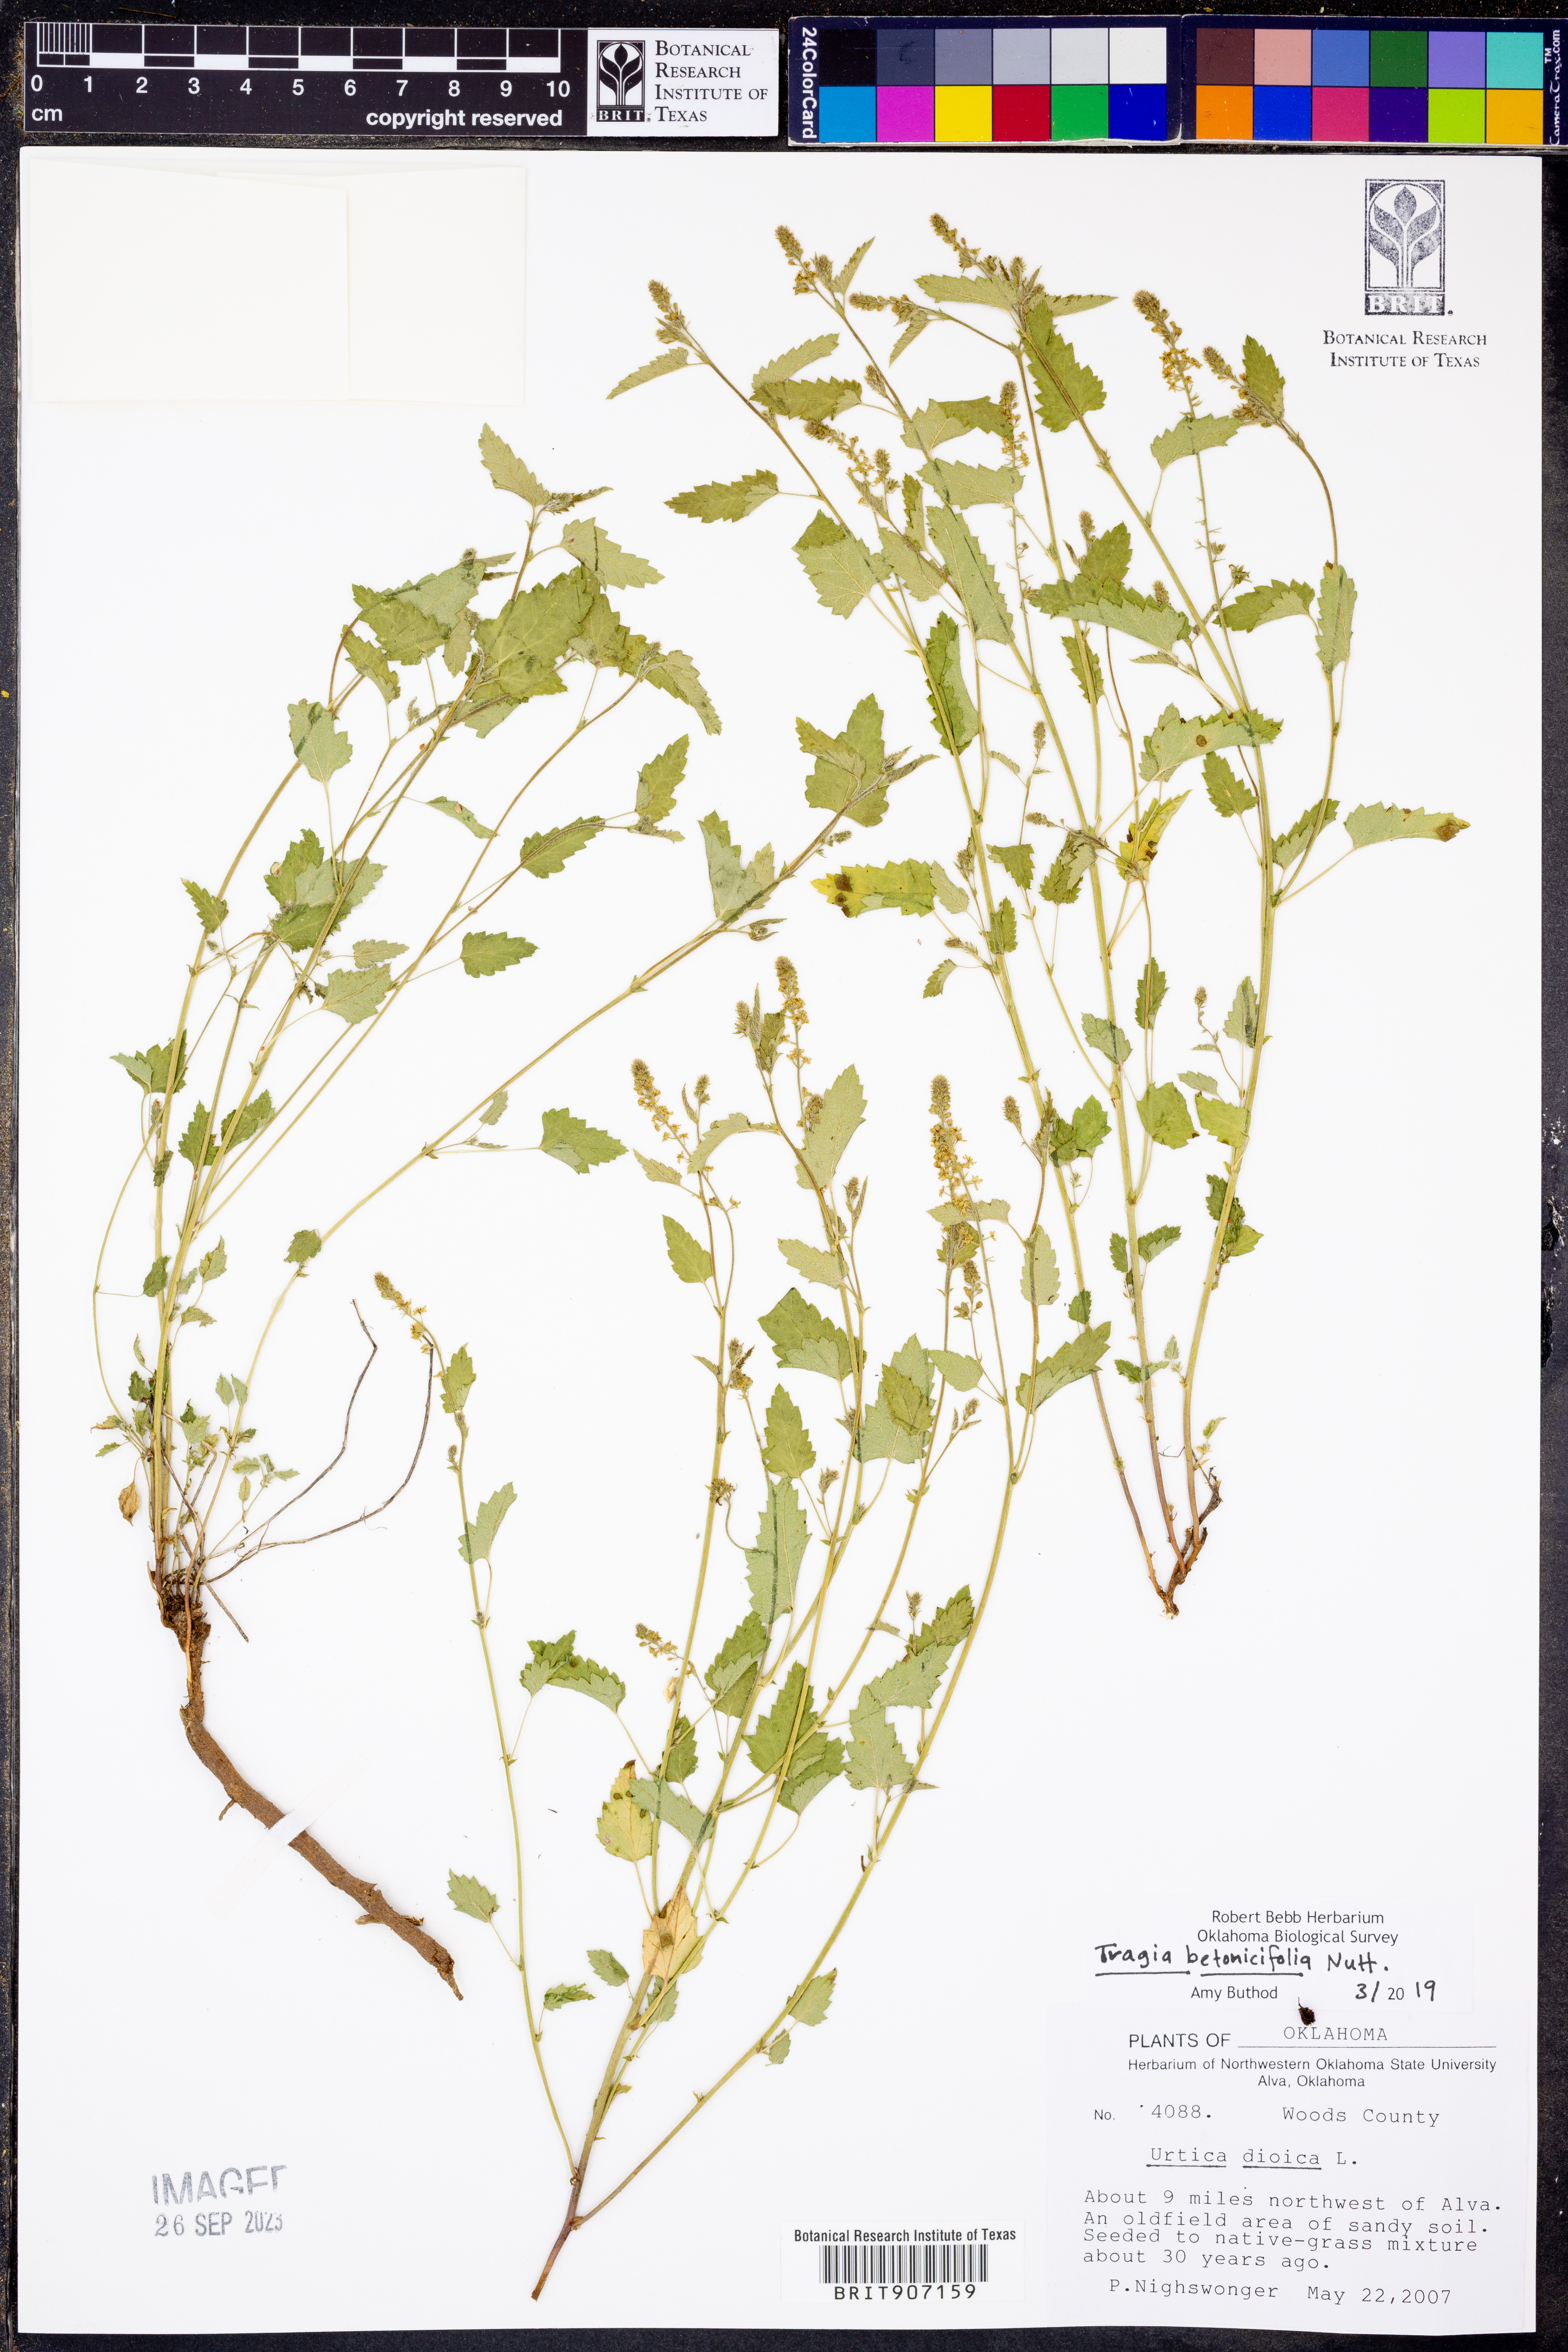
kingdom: Plantae
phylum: Tracheophyta
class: Magnoliopsida
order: Malpighiales
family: Euphorbiaceae
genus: Tragia
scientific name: Tragia betonicifolia
